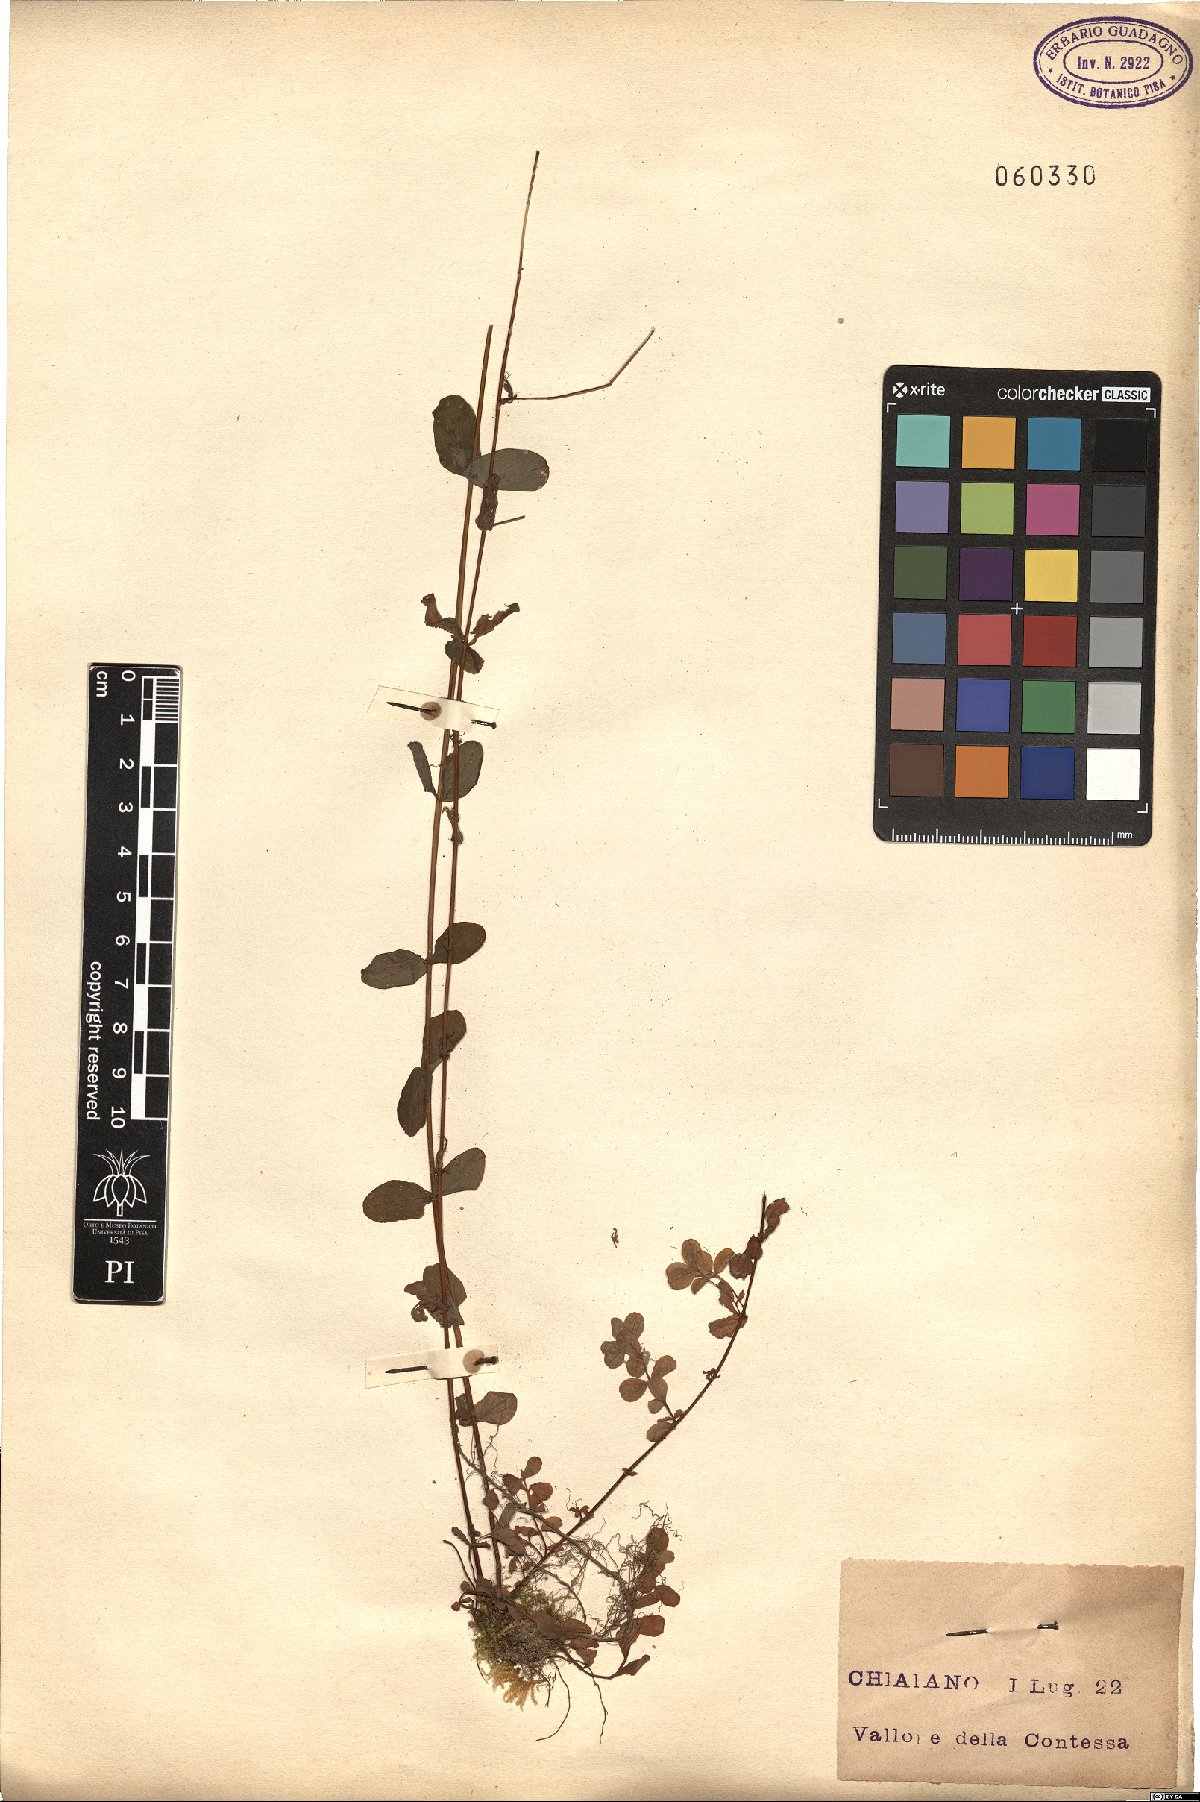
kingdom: Plantae
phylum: Tracheophyta
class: Magnoliopsida
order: Malpighiales
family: Hypericaceae
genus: Hypericum
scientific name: Hypericum
